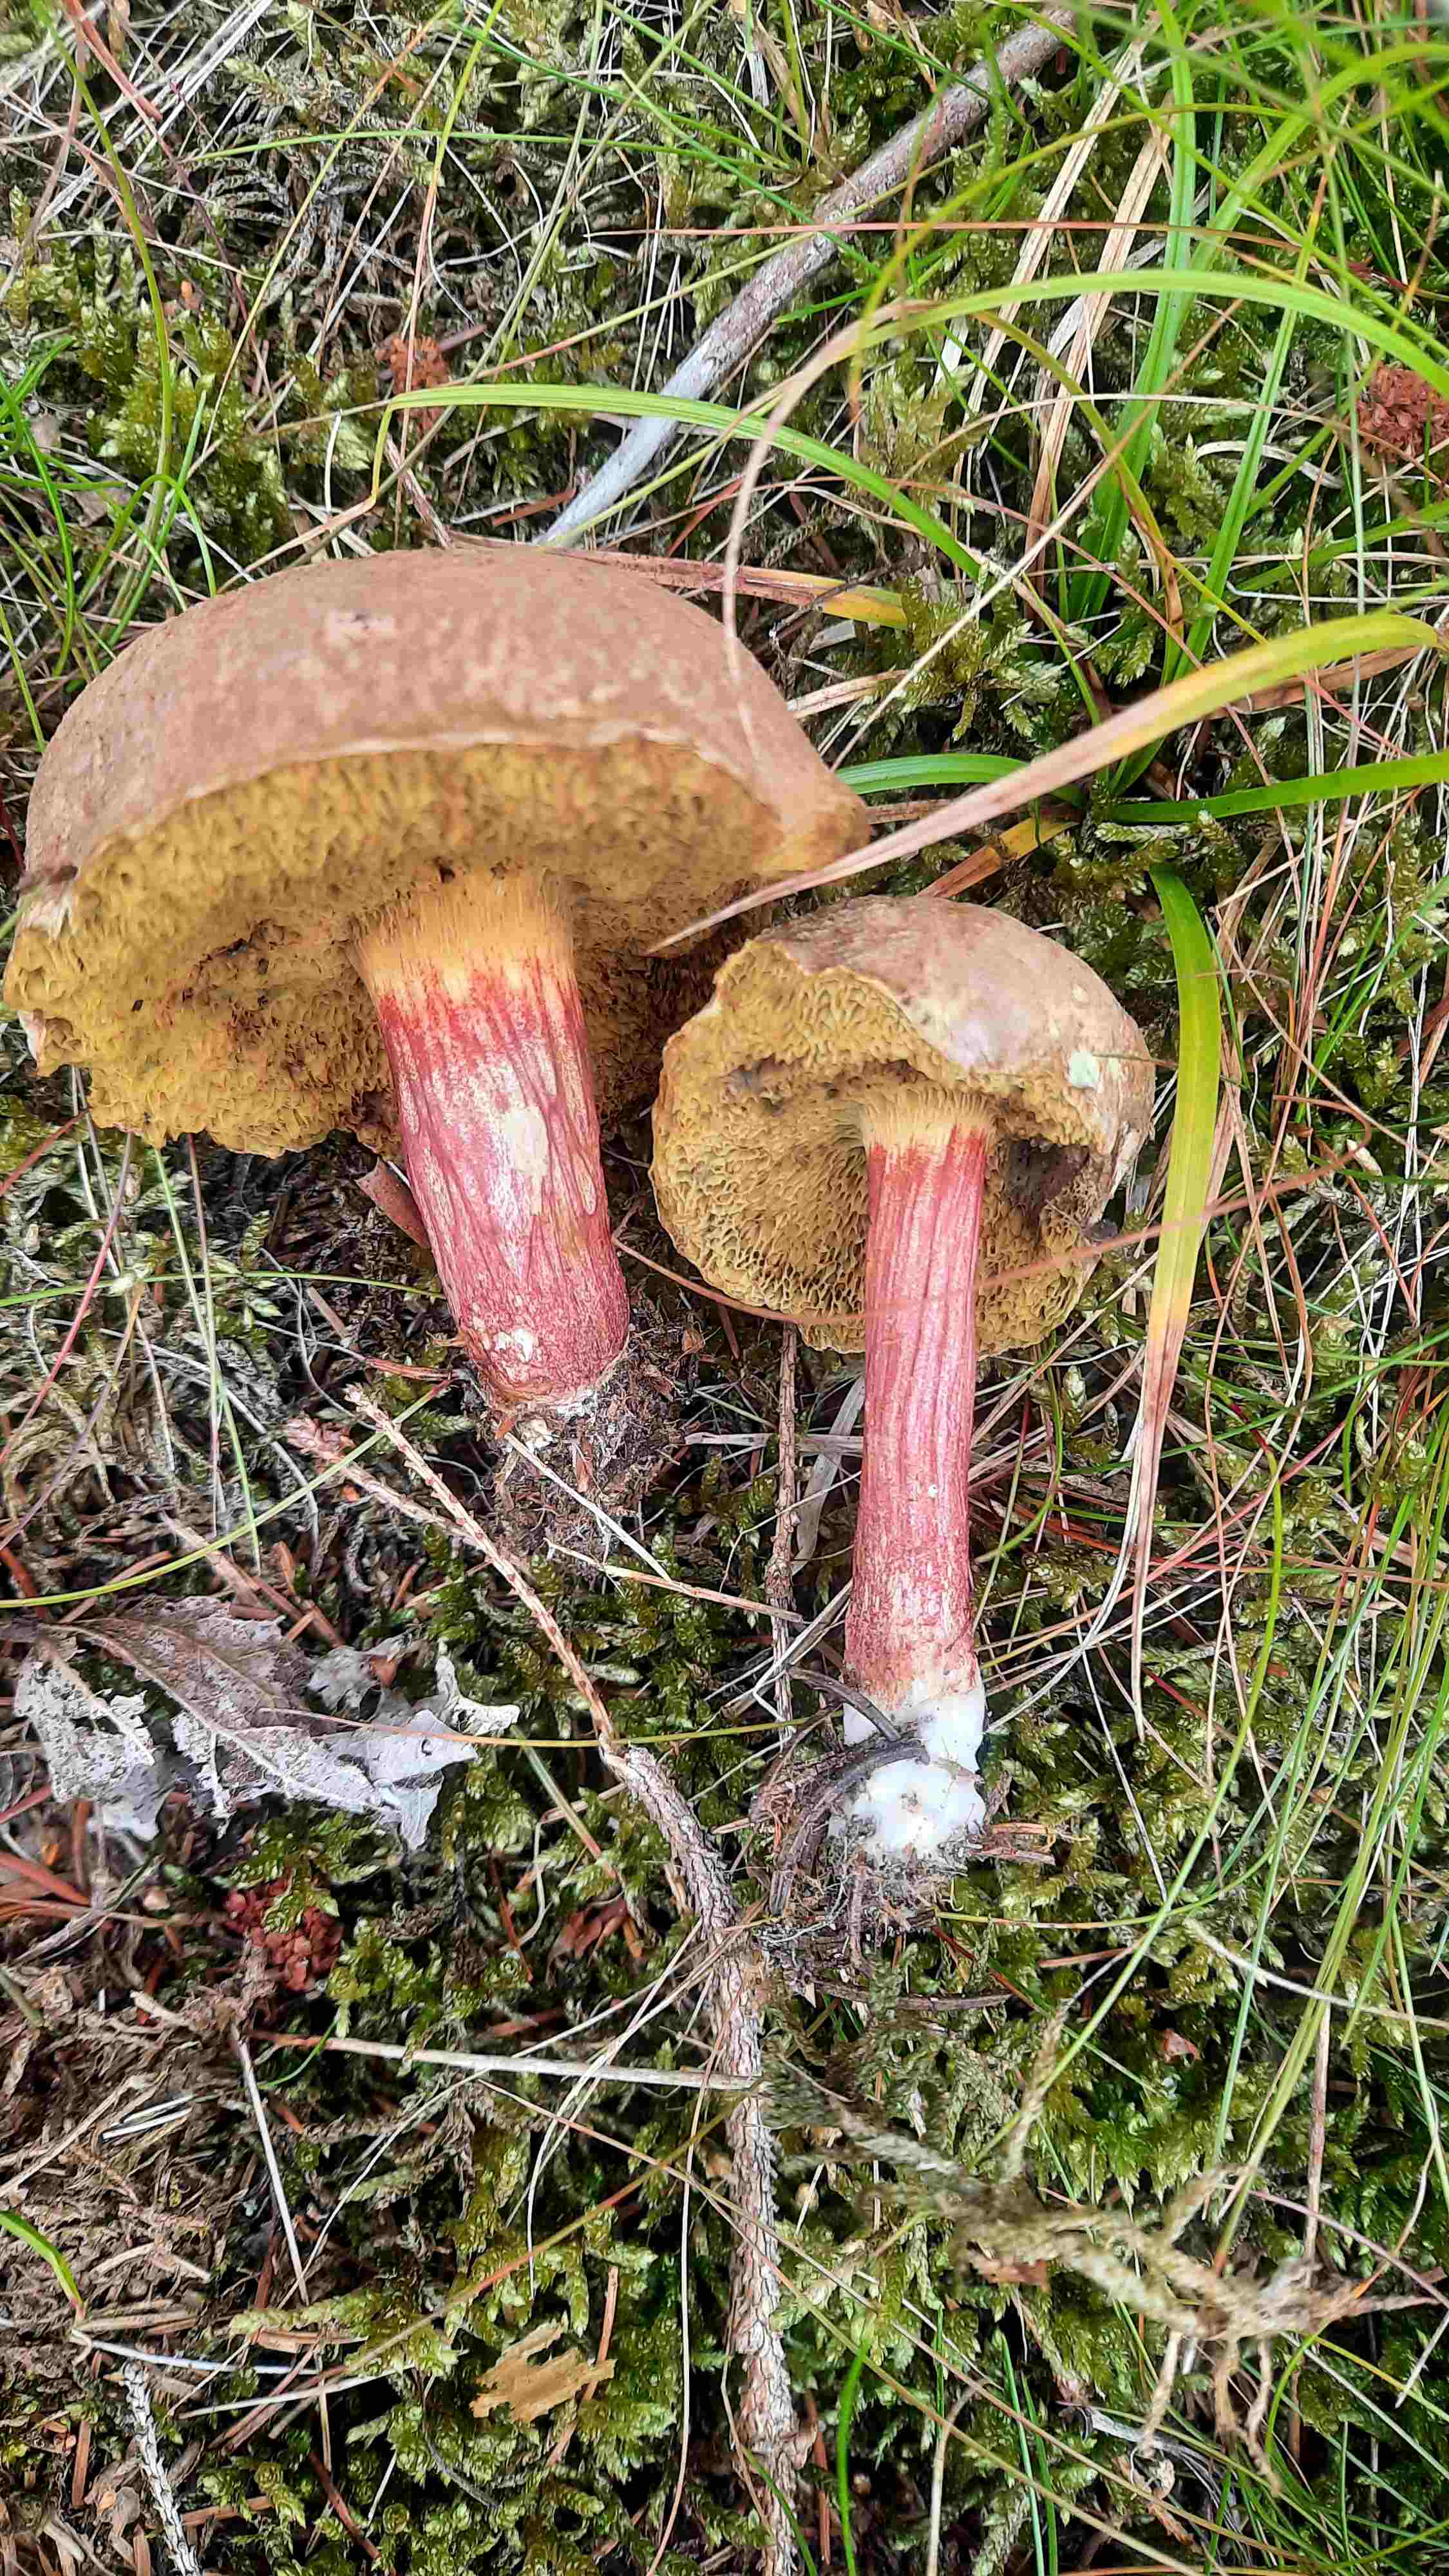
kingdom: Fungi
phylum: Basidiomycota
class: Agaricomycetes
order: Boletales
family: Boletaceae
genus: Xerocomellus
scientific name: Xerocomellus chrysenteron
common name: rødsprukken rørhat
